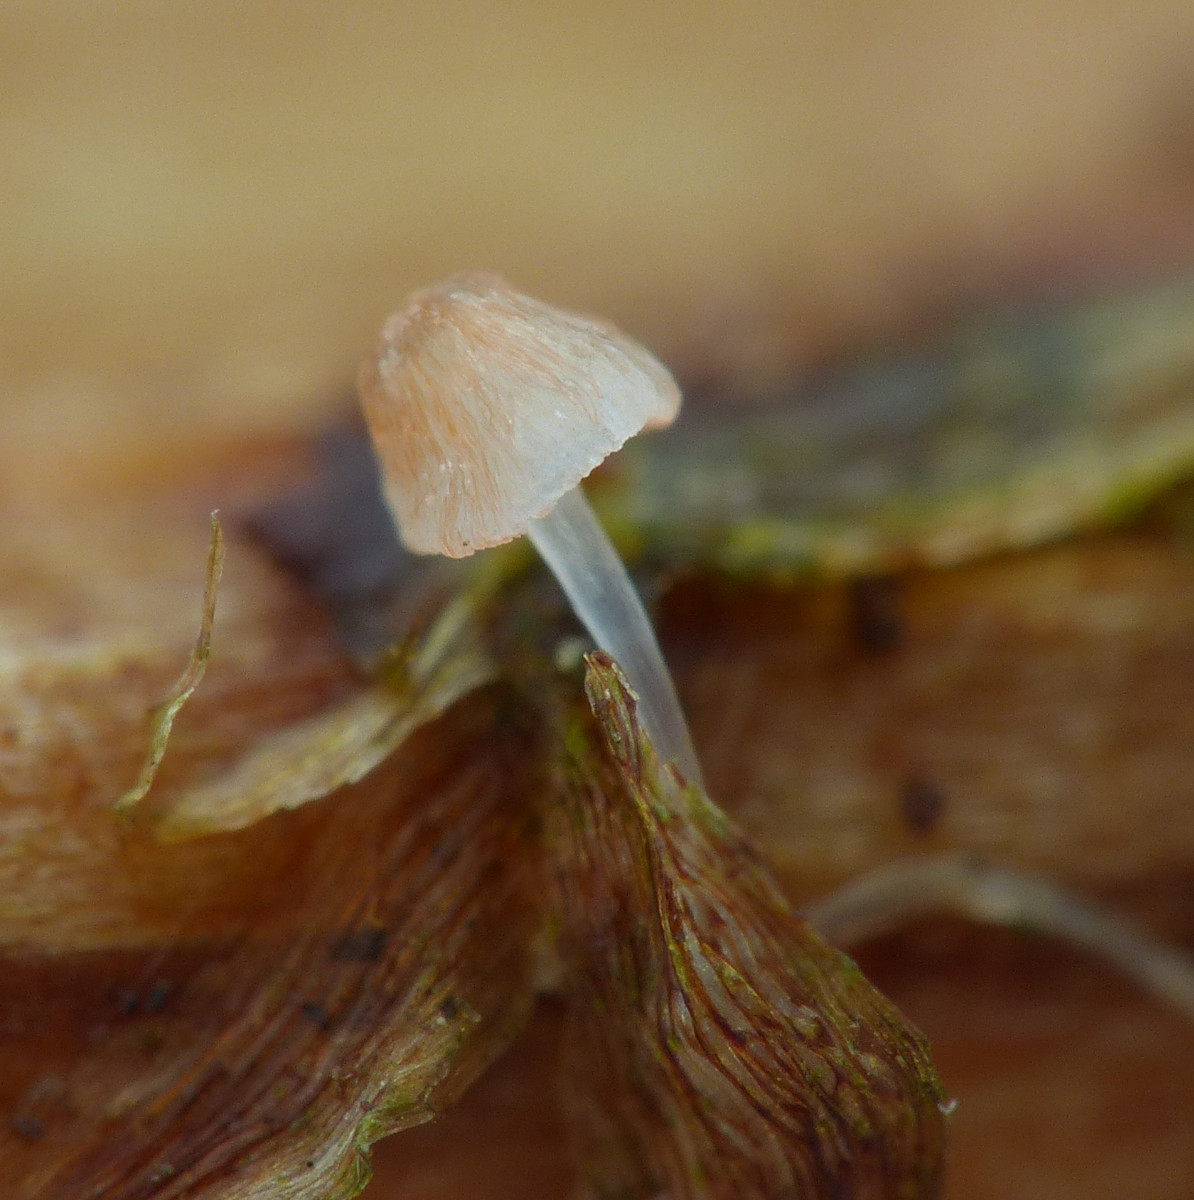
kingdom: Fungi
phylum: Basidiomycota
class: Agaricomycetes
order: Agaricales
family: Mycenaceae
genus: Mycena
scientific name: Mycena pterigena
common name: bregne-huesvamp
